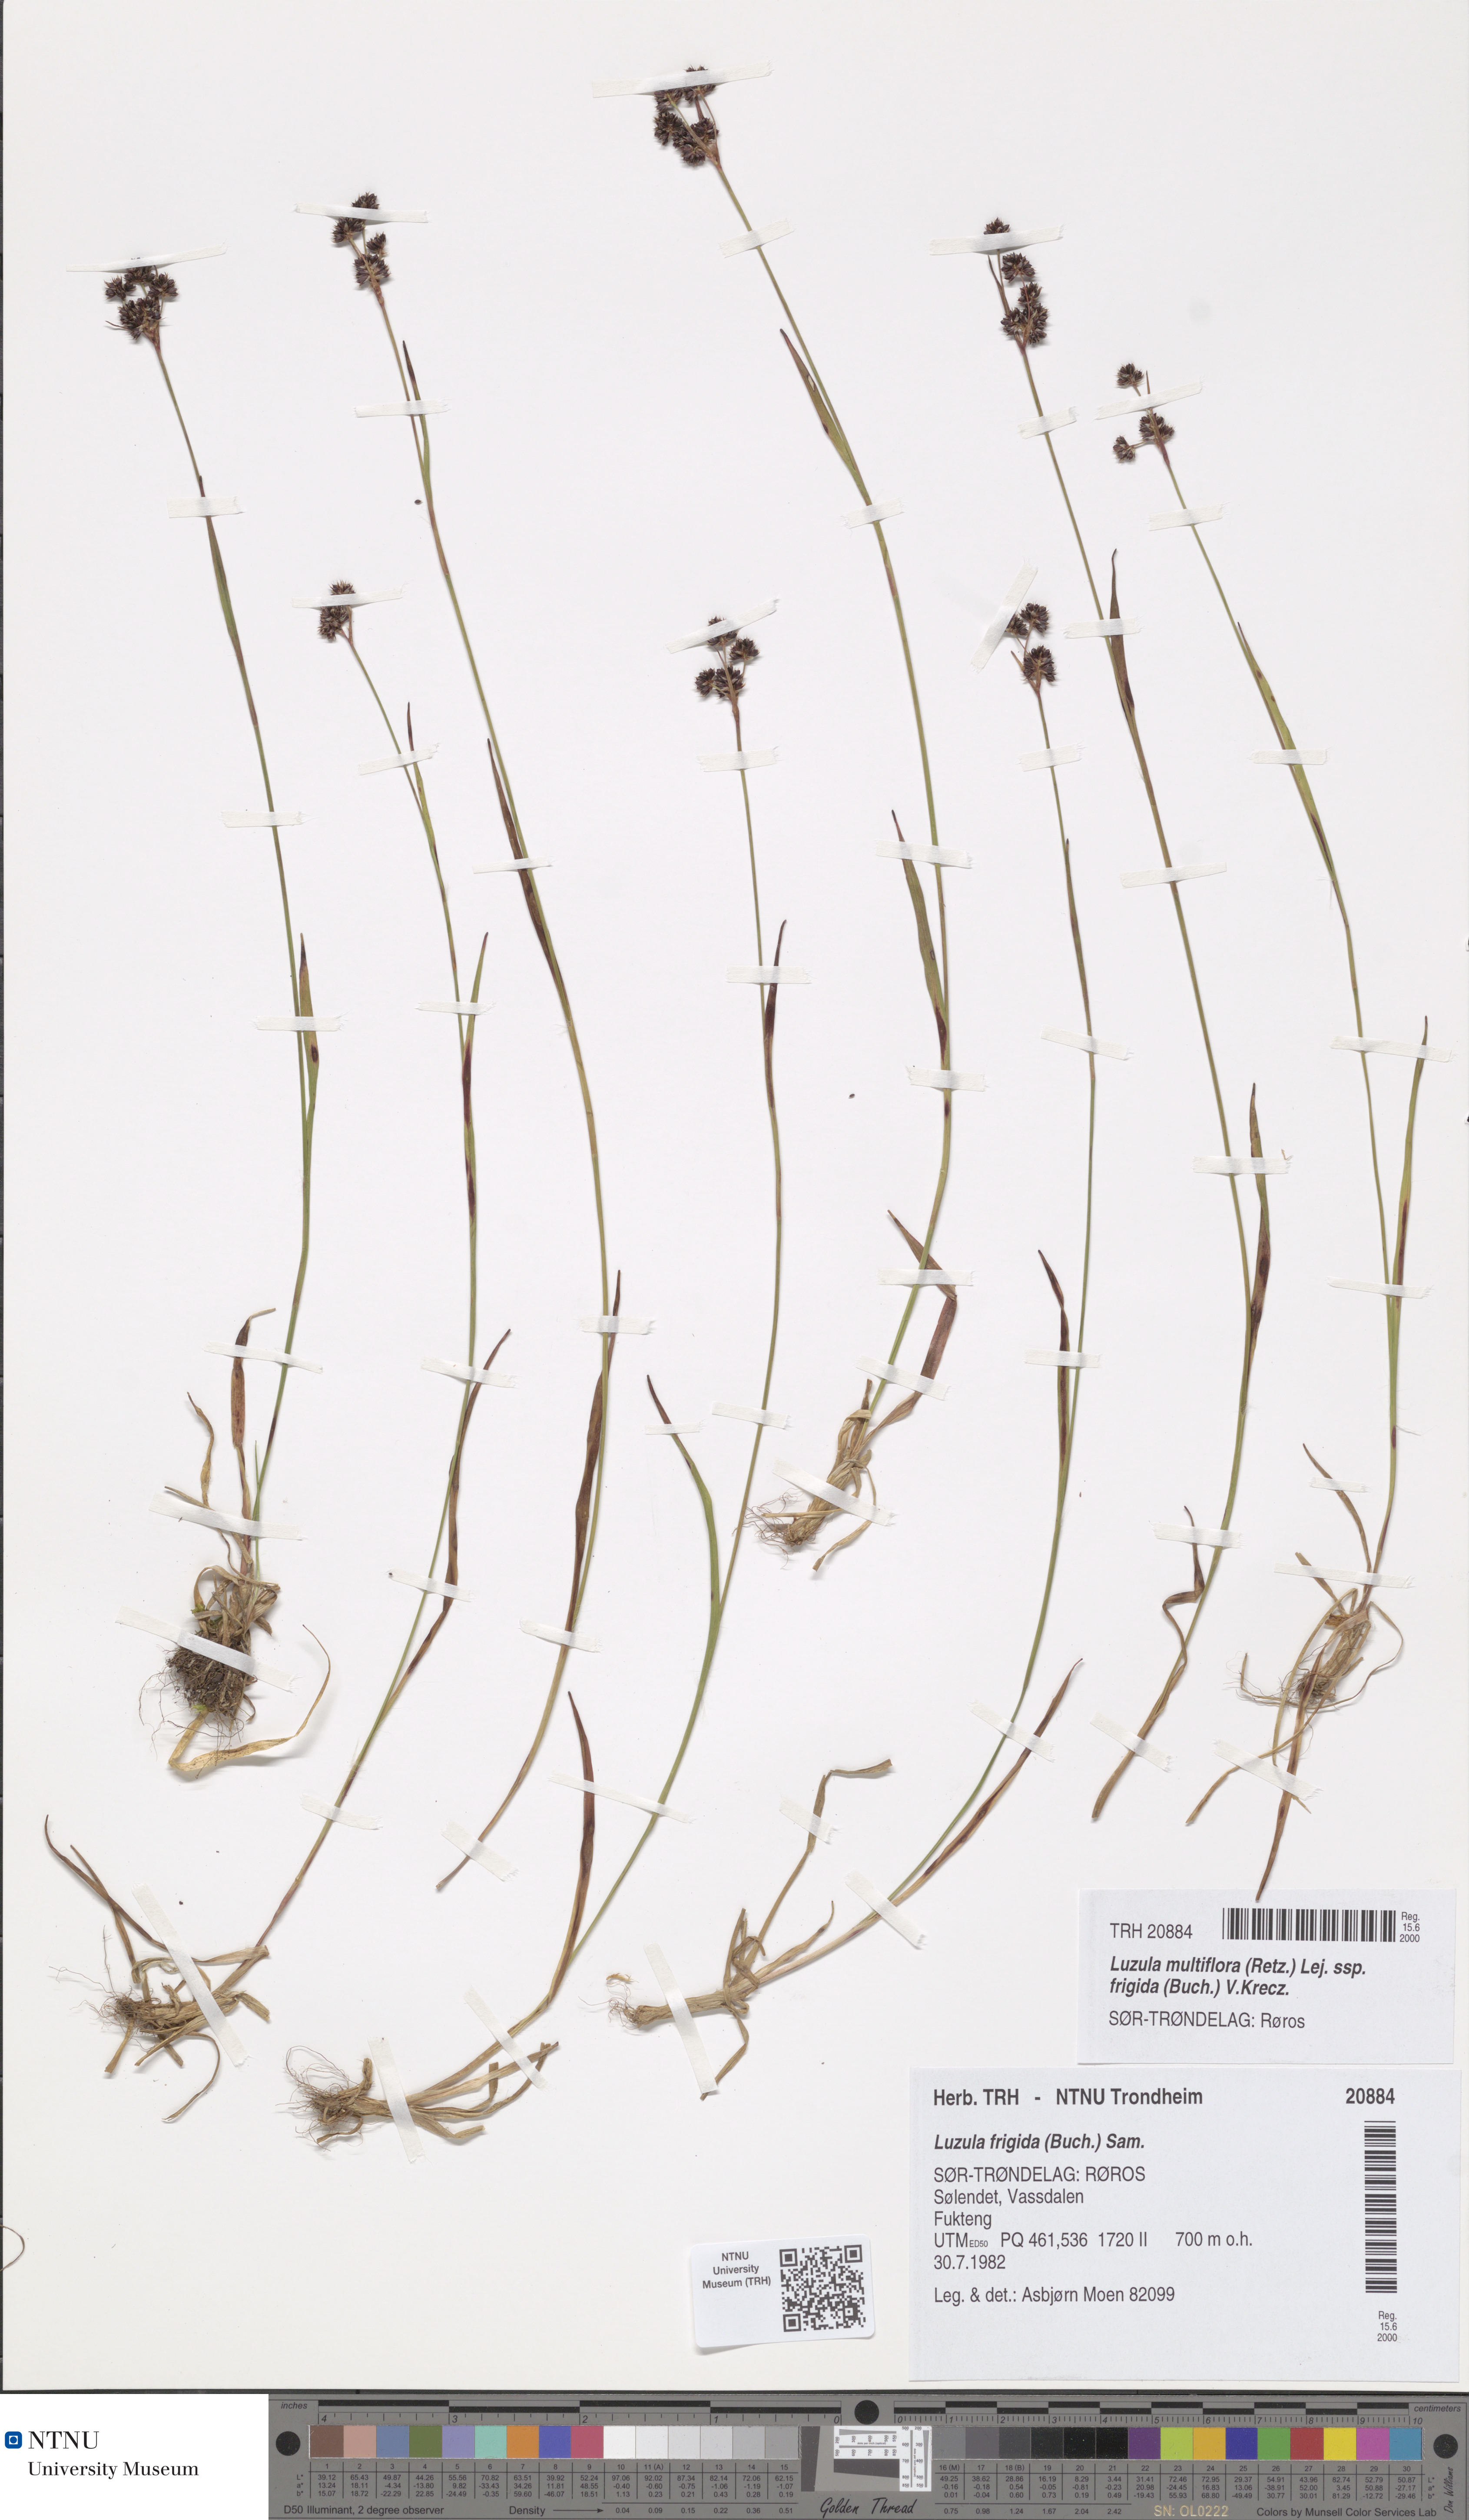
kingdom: Plantae
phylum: Tracheophyta
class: Liliopsida
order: Poales
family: Juncaceae
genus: Luzula
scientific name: Luzula multiflora
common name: Heath wood-rush
